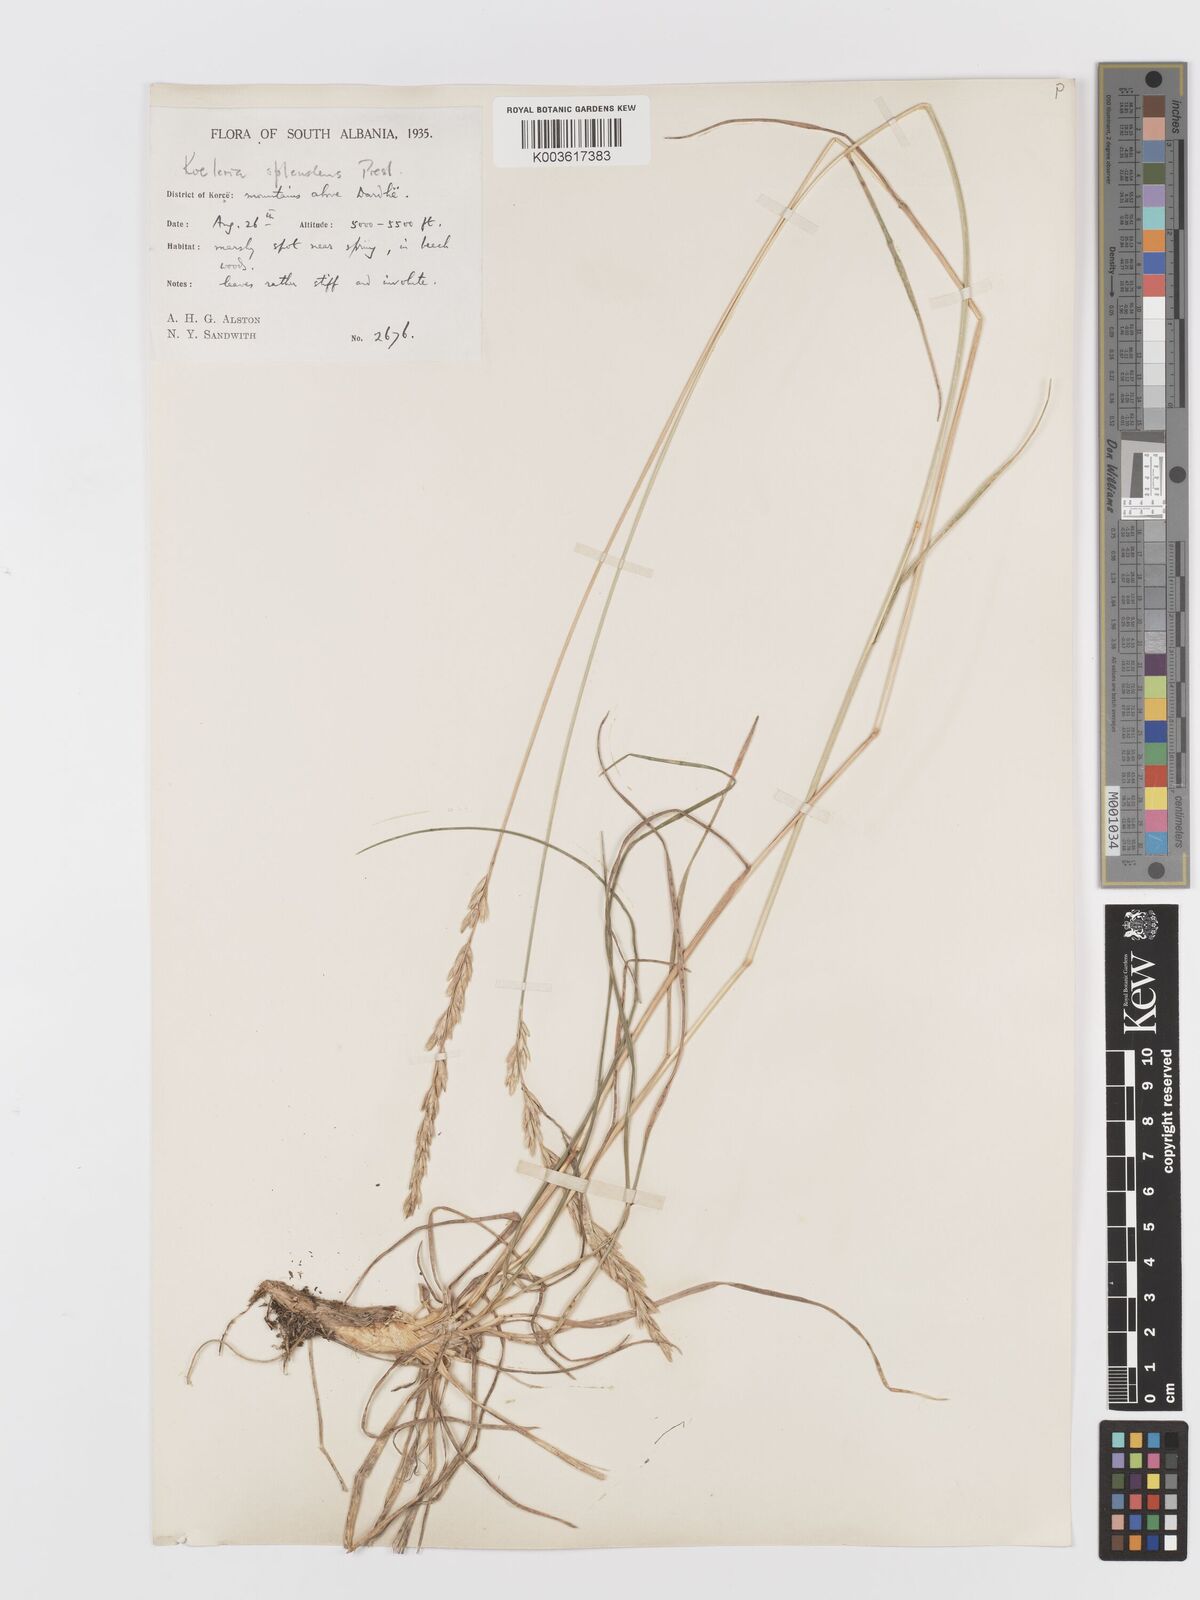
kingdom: Plantae
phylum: Tracheophyta
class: Liliopsida
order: Poales
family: Poaceae
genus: Koeleria
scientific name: Koeleria splendens
